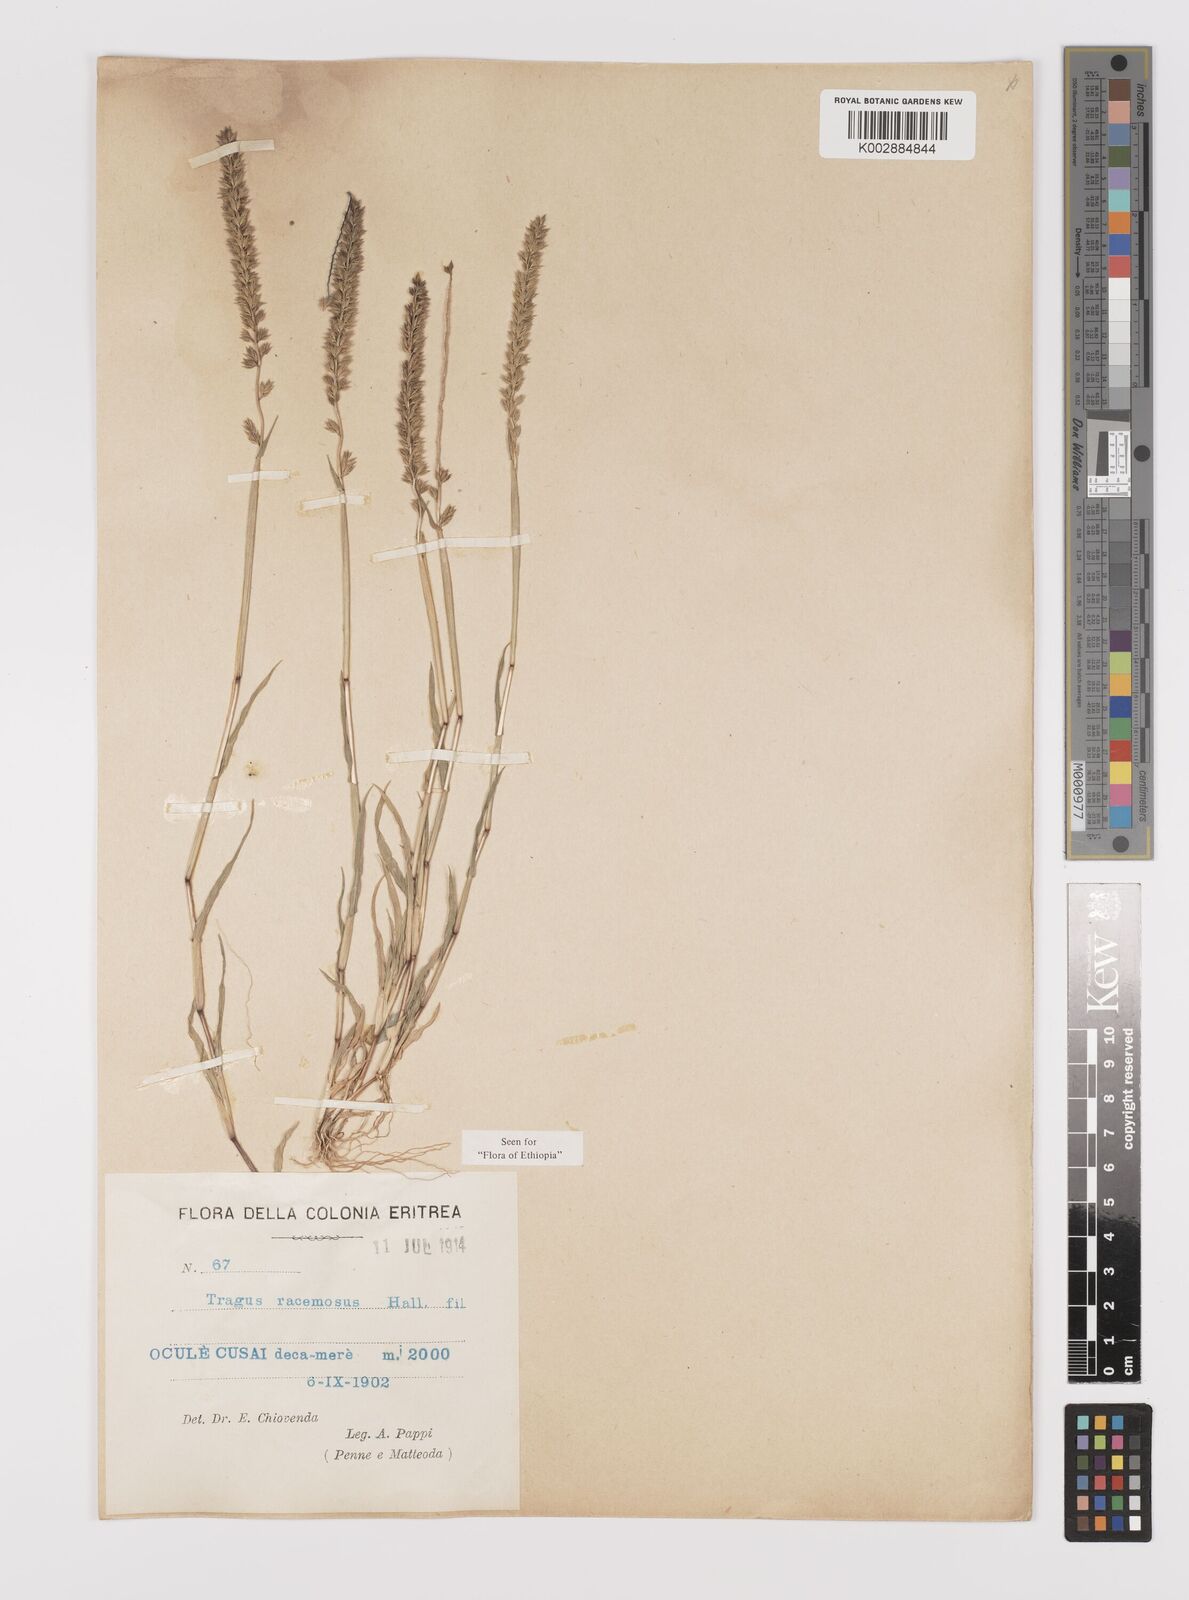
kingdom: Plantae
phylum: Tracheophyta
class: Liliopsida
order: Poales
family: Poaceae
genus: Tragus
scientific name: Tragus racemosus
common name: European bur-grass
